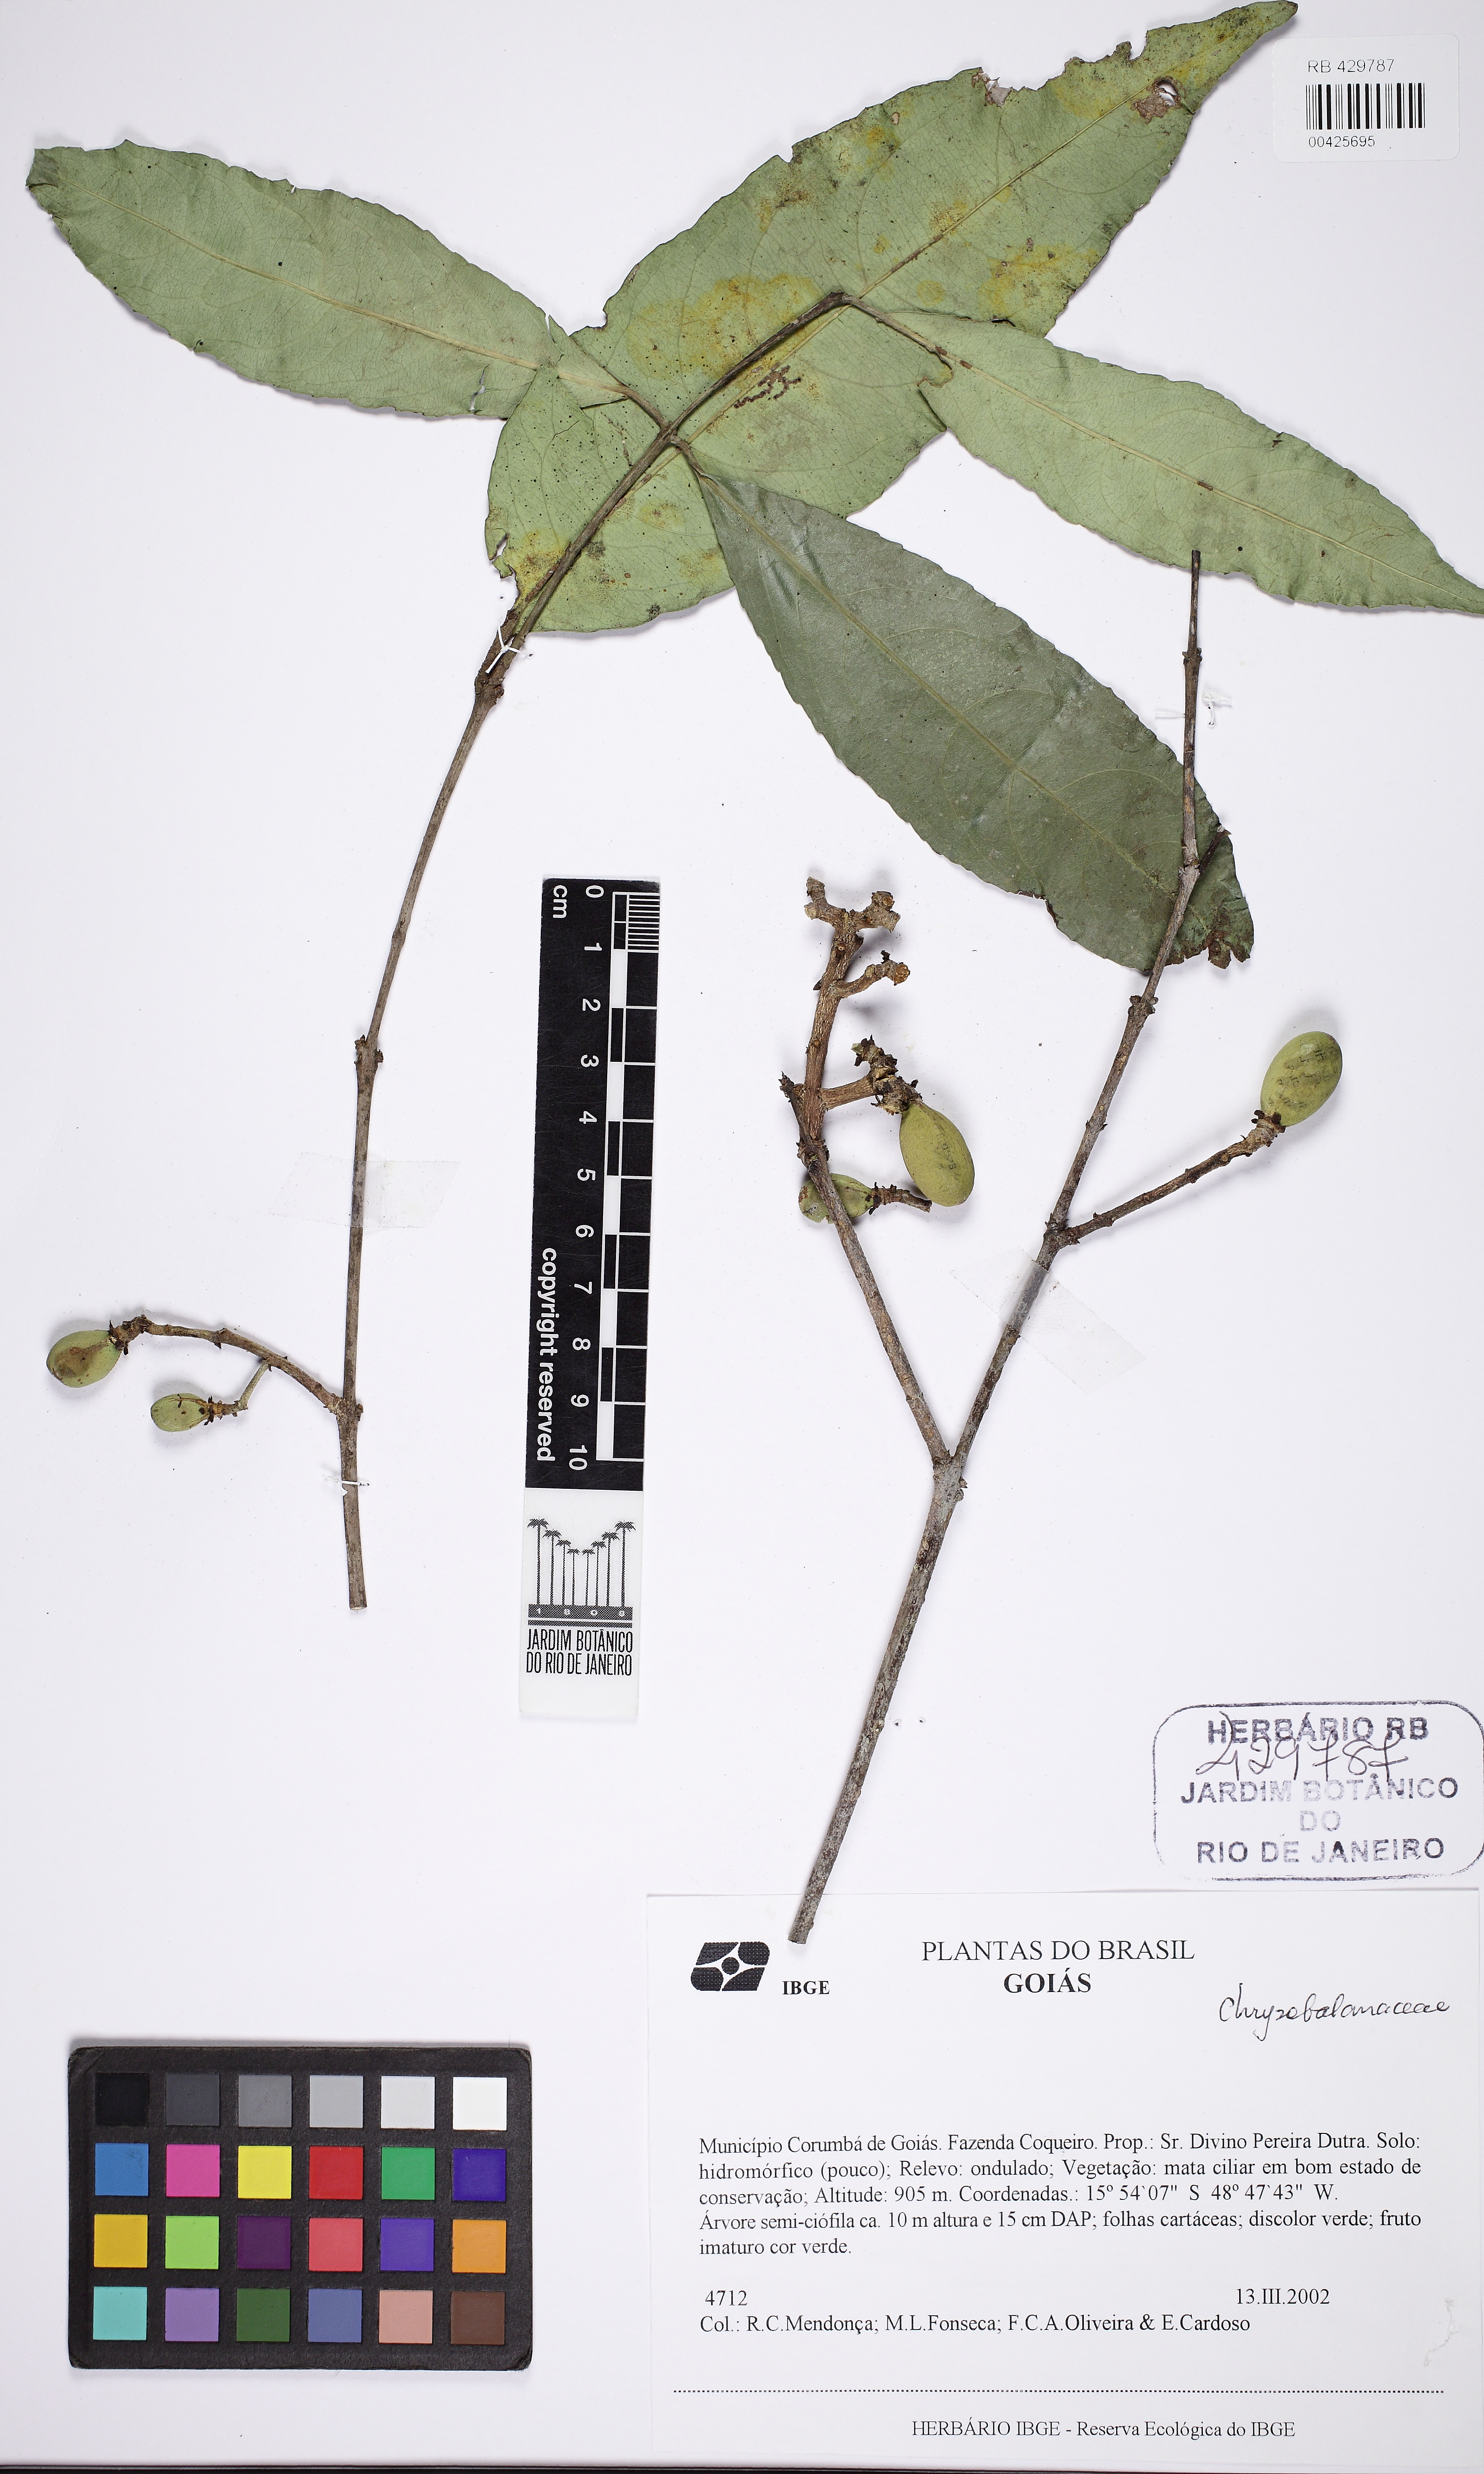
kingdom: Plantae
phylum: Tracheophyta
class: Magnoliopsida
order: Celastrales
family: Celastraceae
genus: Cheiloclinium
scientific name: Cheiloclinium
